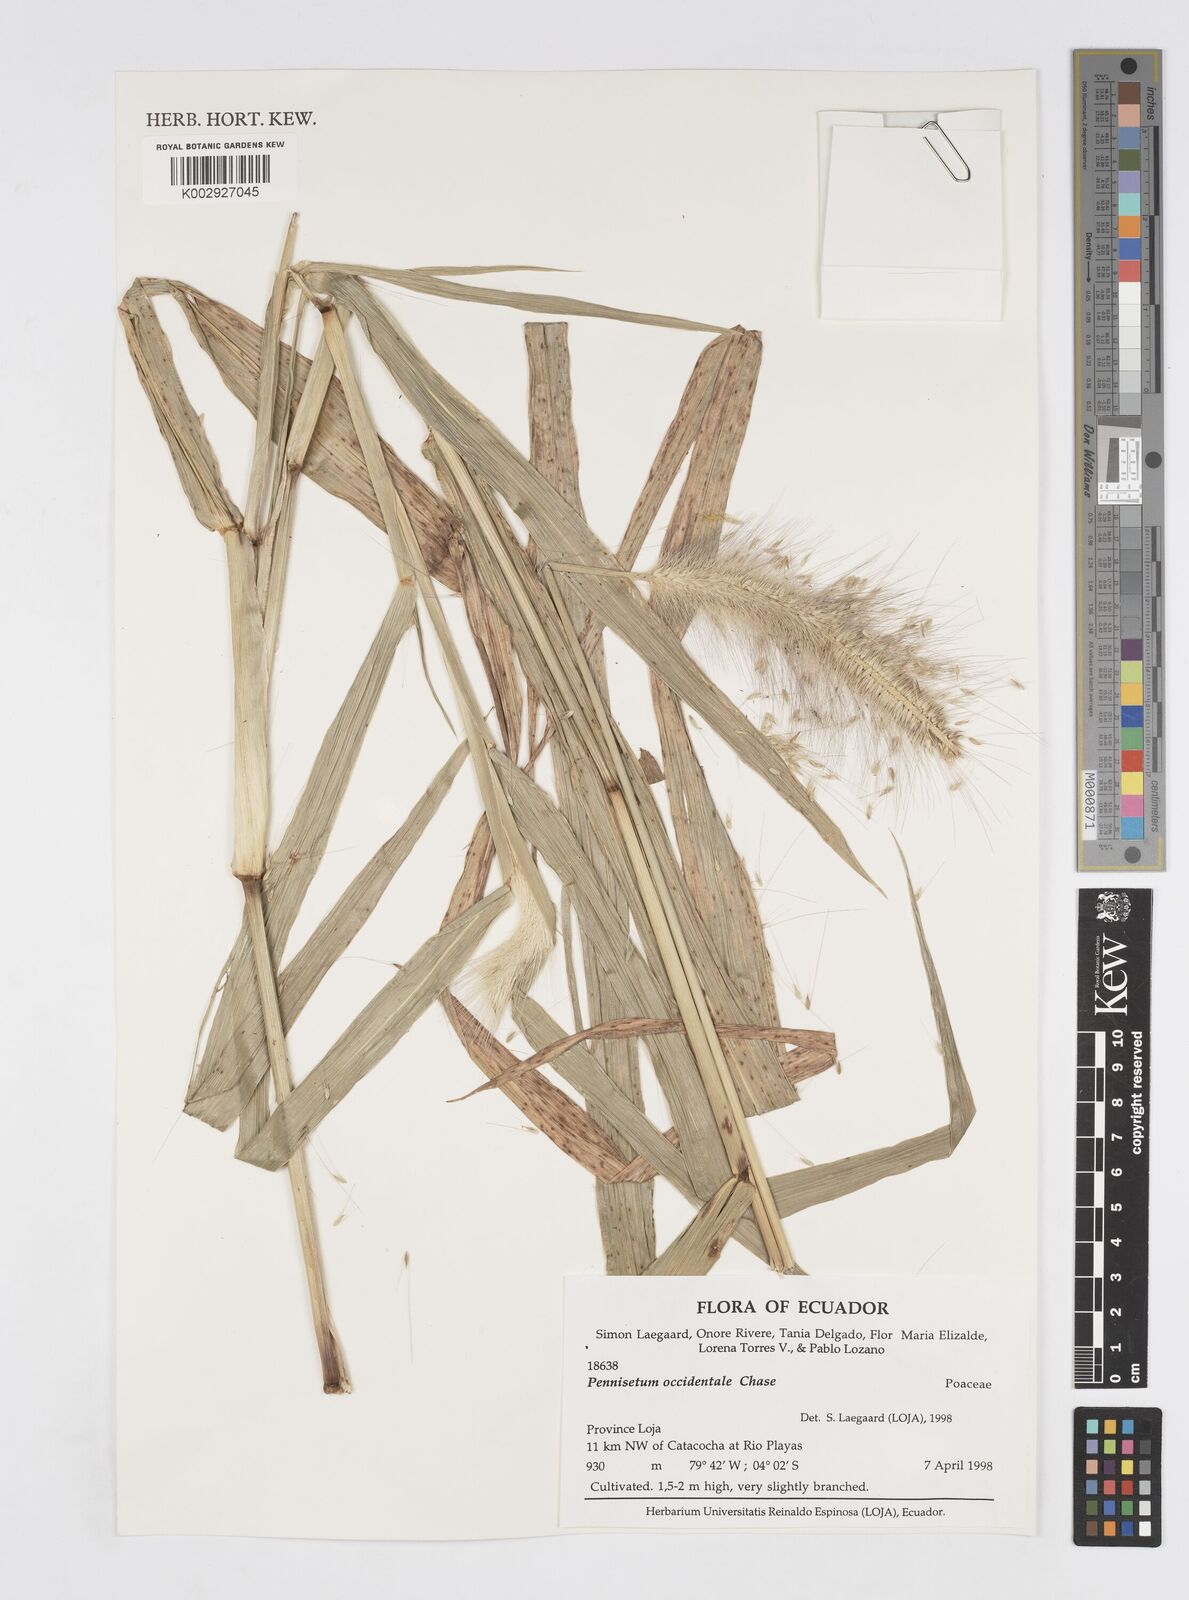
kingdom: Plantae
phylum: Tracheophyta
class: Liliopsida
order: Poales
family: Poaceae
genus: Cenchrus
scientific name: Cenchrus occidentalis
